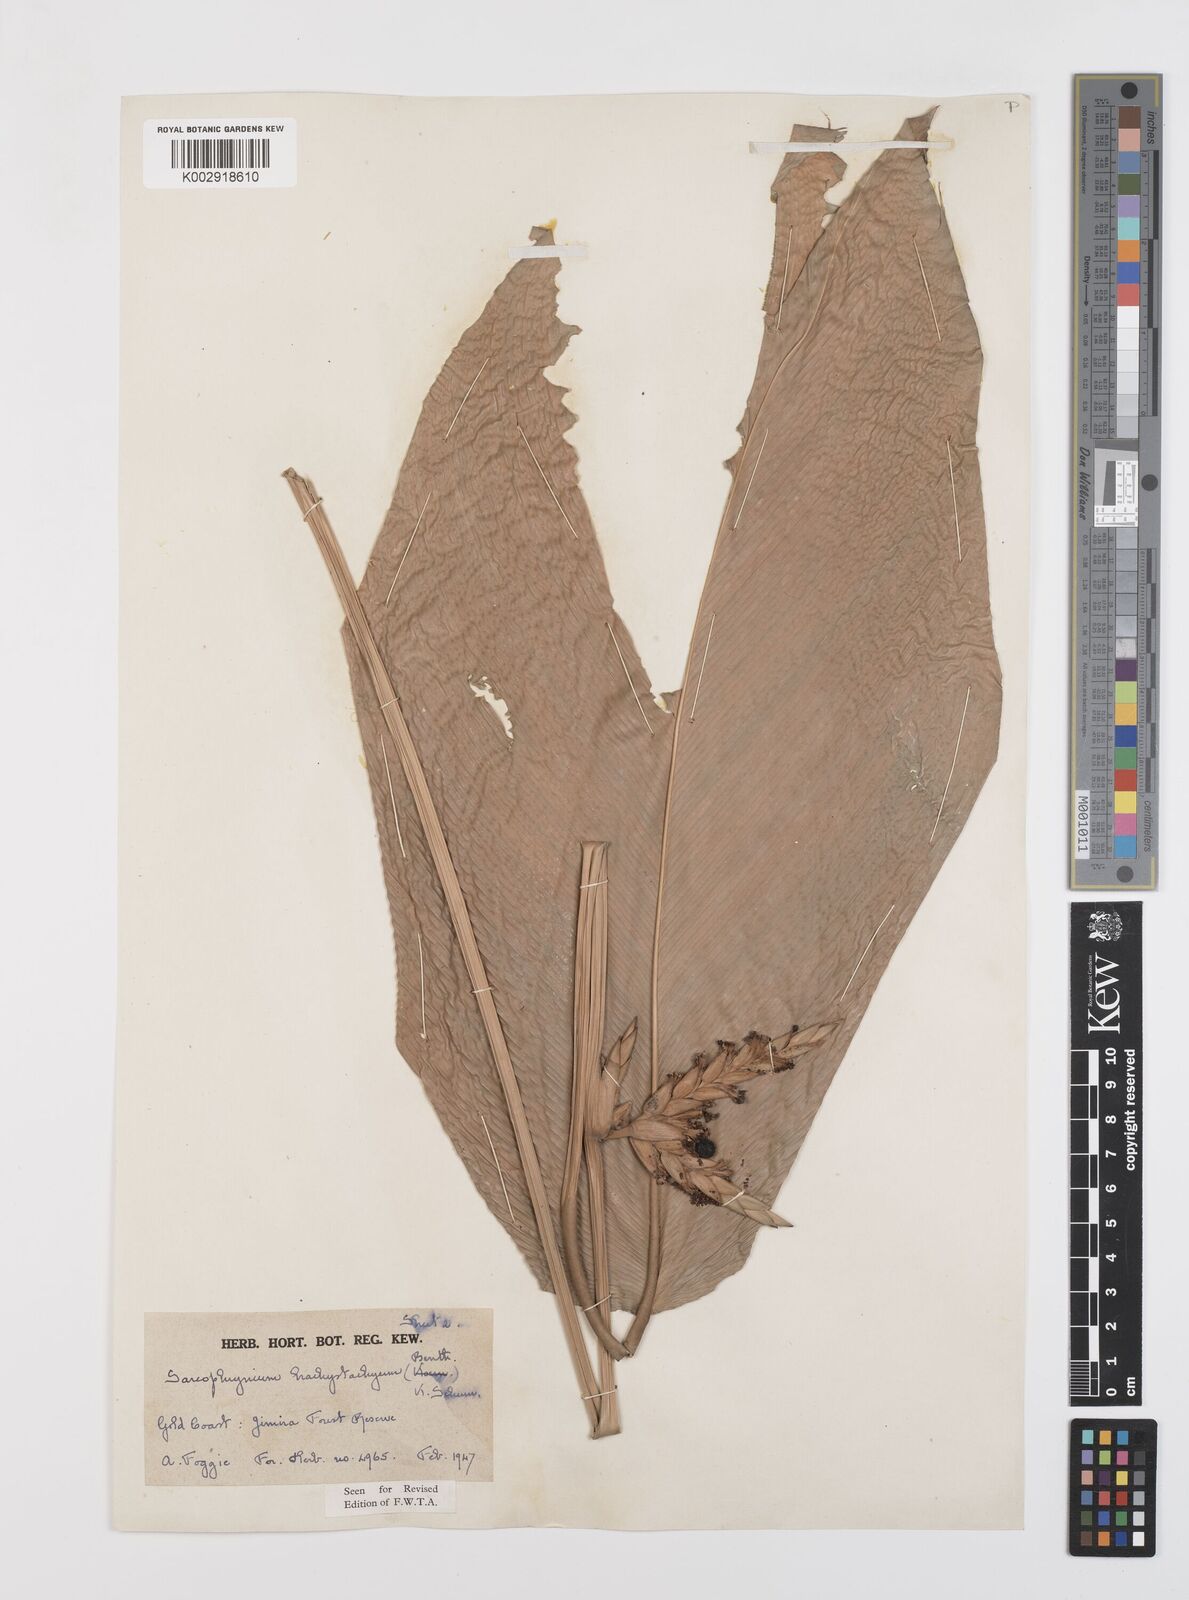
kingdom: Plantae
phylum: Tracheophyta
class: Liliopsida
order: Zingiberales
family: Marantaceae
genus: Sarcophrynium
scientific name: Sarcophrynium brachystachyum
